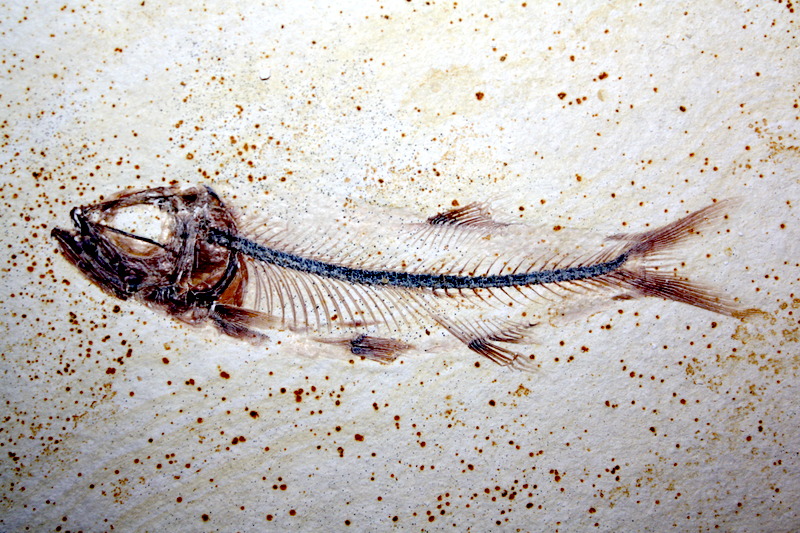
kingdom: Animalia
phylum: Chordata
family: Ascalaboidae
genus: Ebertichthys
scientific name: Ebertichthys ettlingensis
